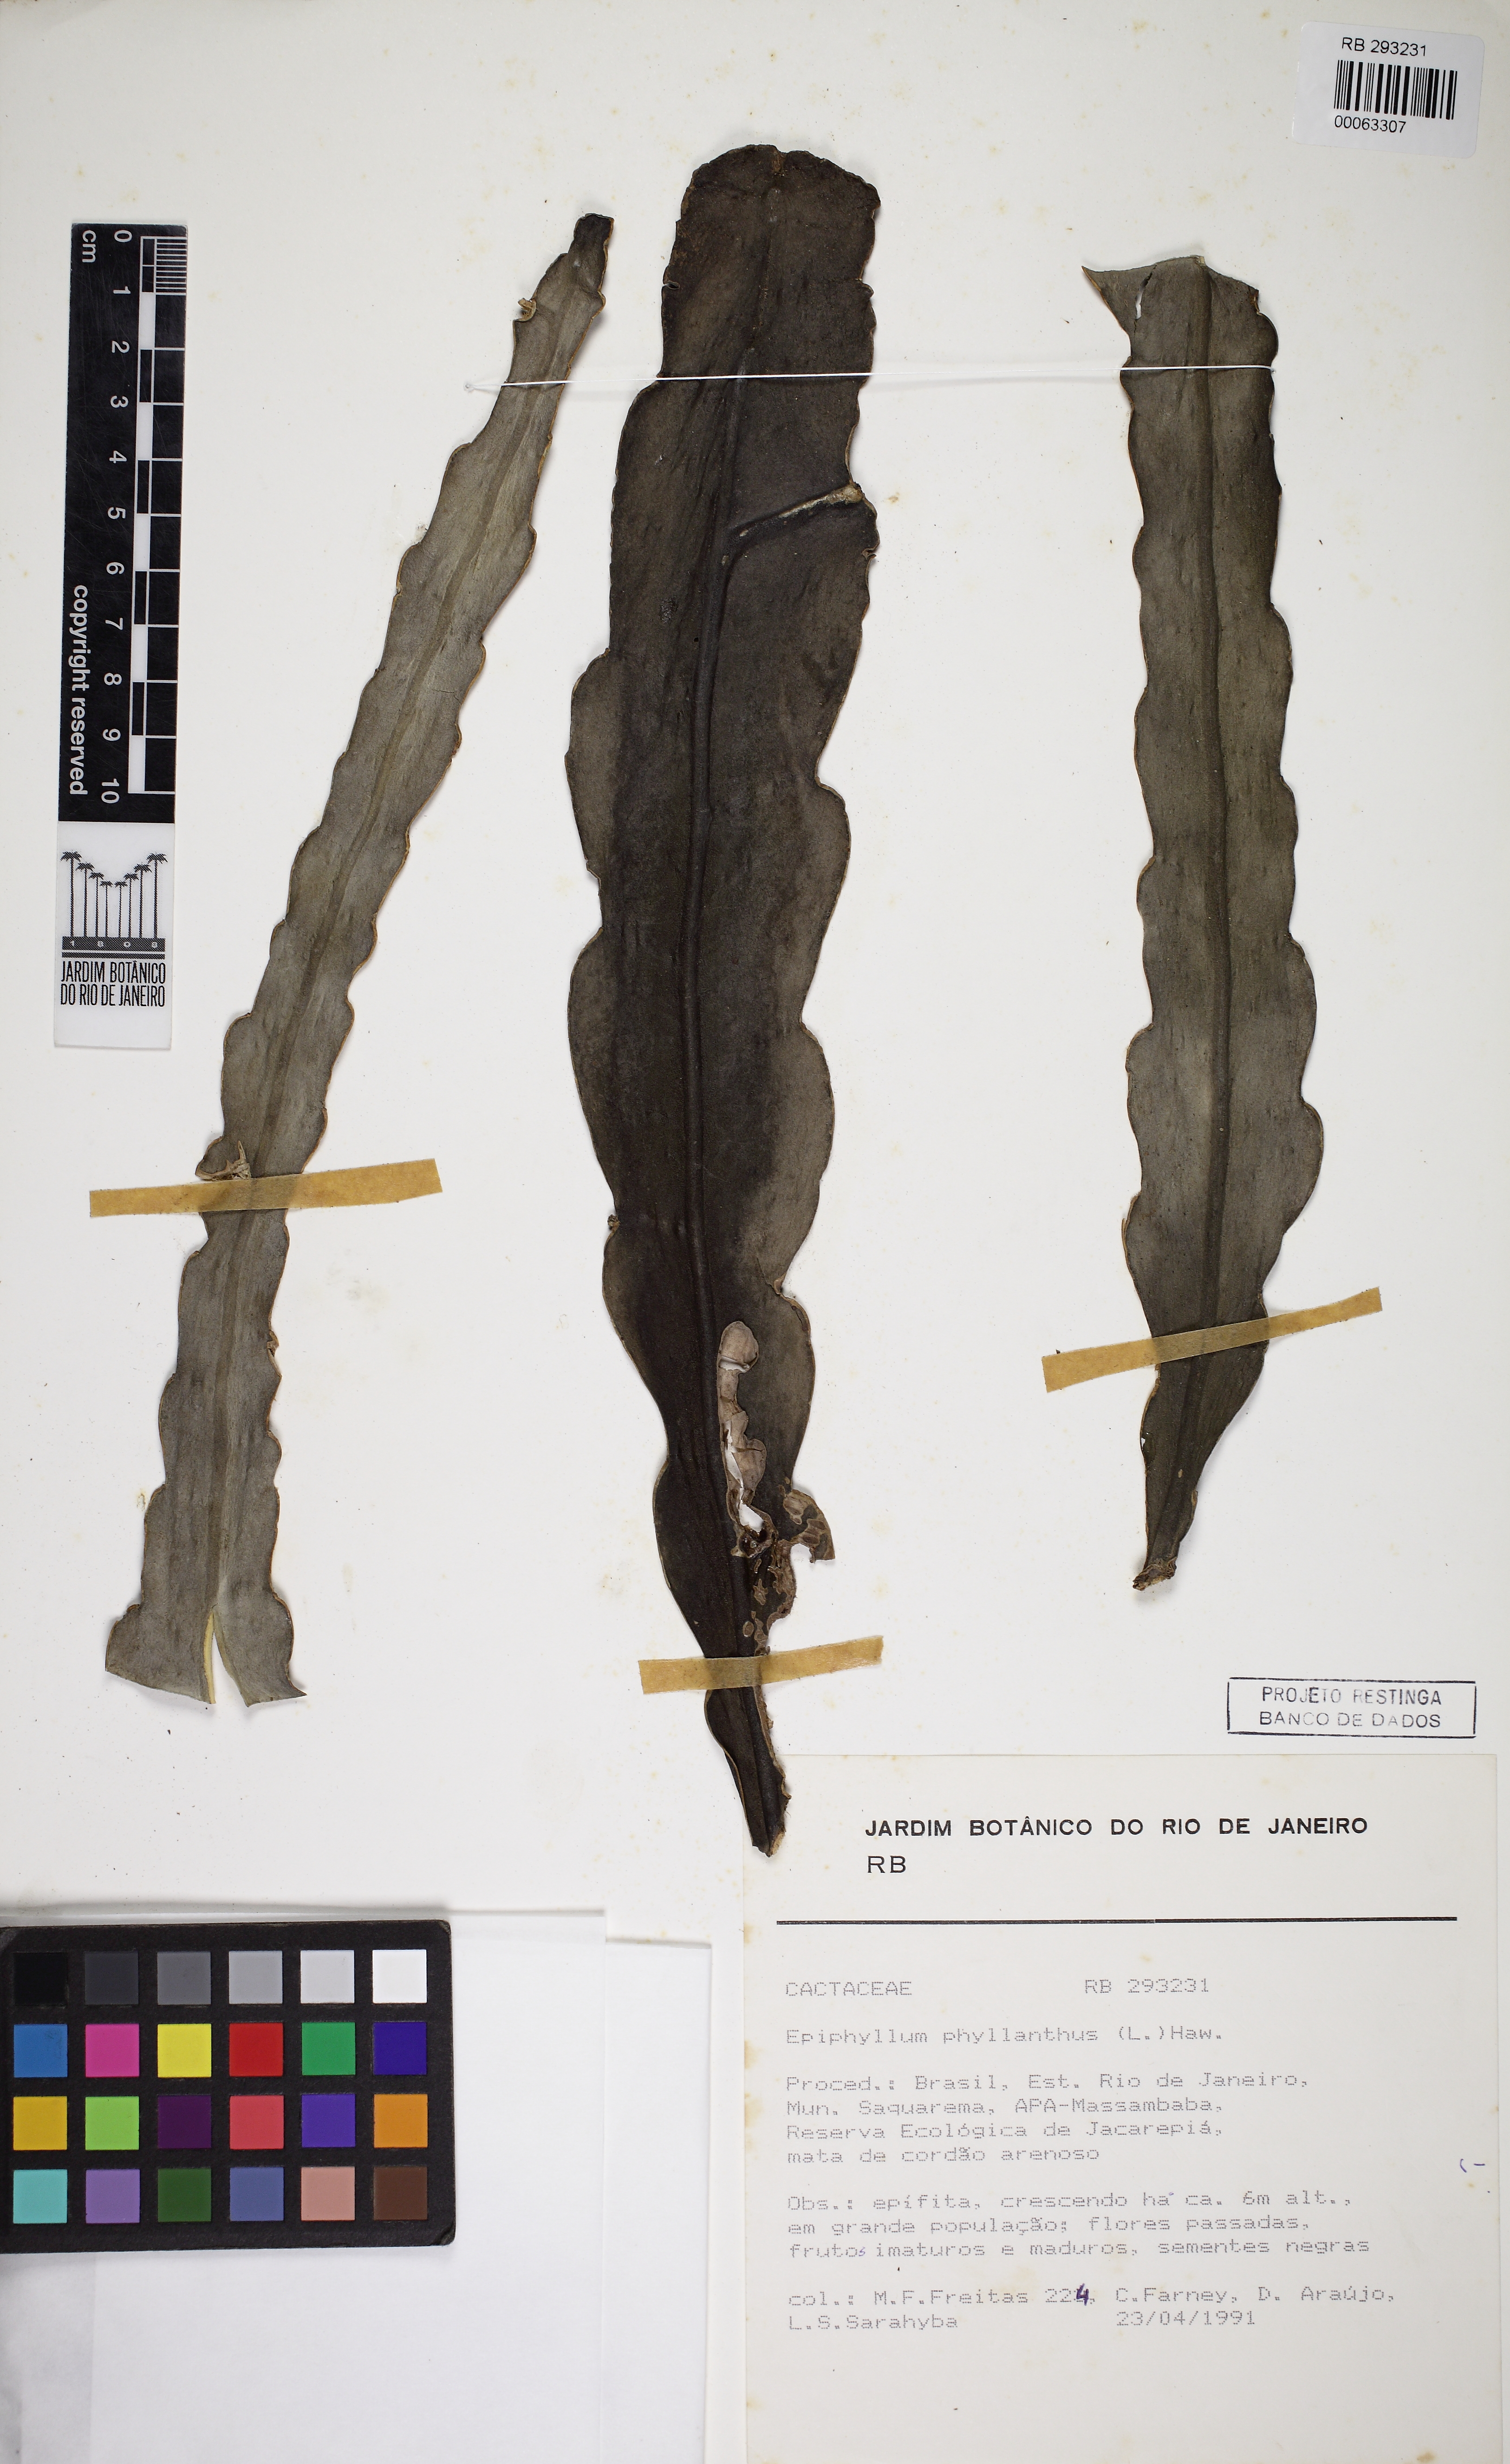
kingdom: Plantae
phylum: Tracheophyta
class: Magnoliopsida
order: Caryophyllales
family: Cactaceae
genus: Epiphyllum
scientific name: Epiphyllum phyllanthus
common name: Climbing cactus
